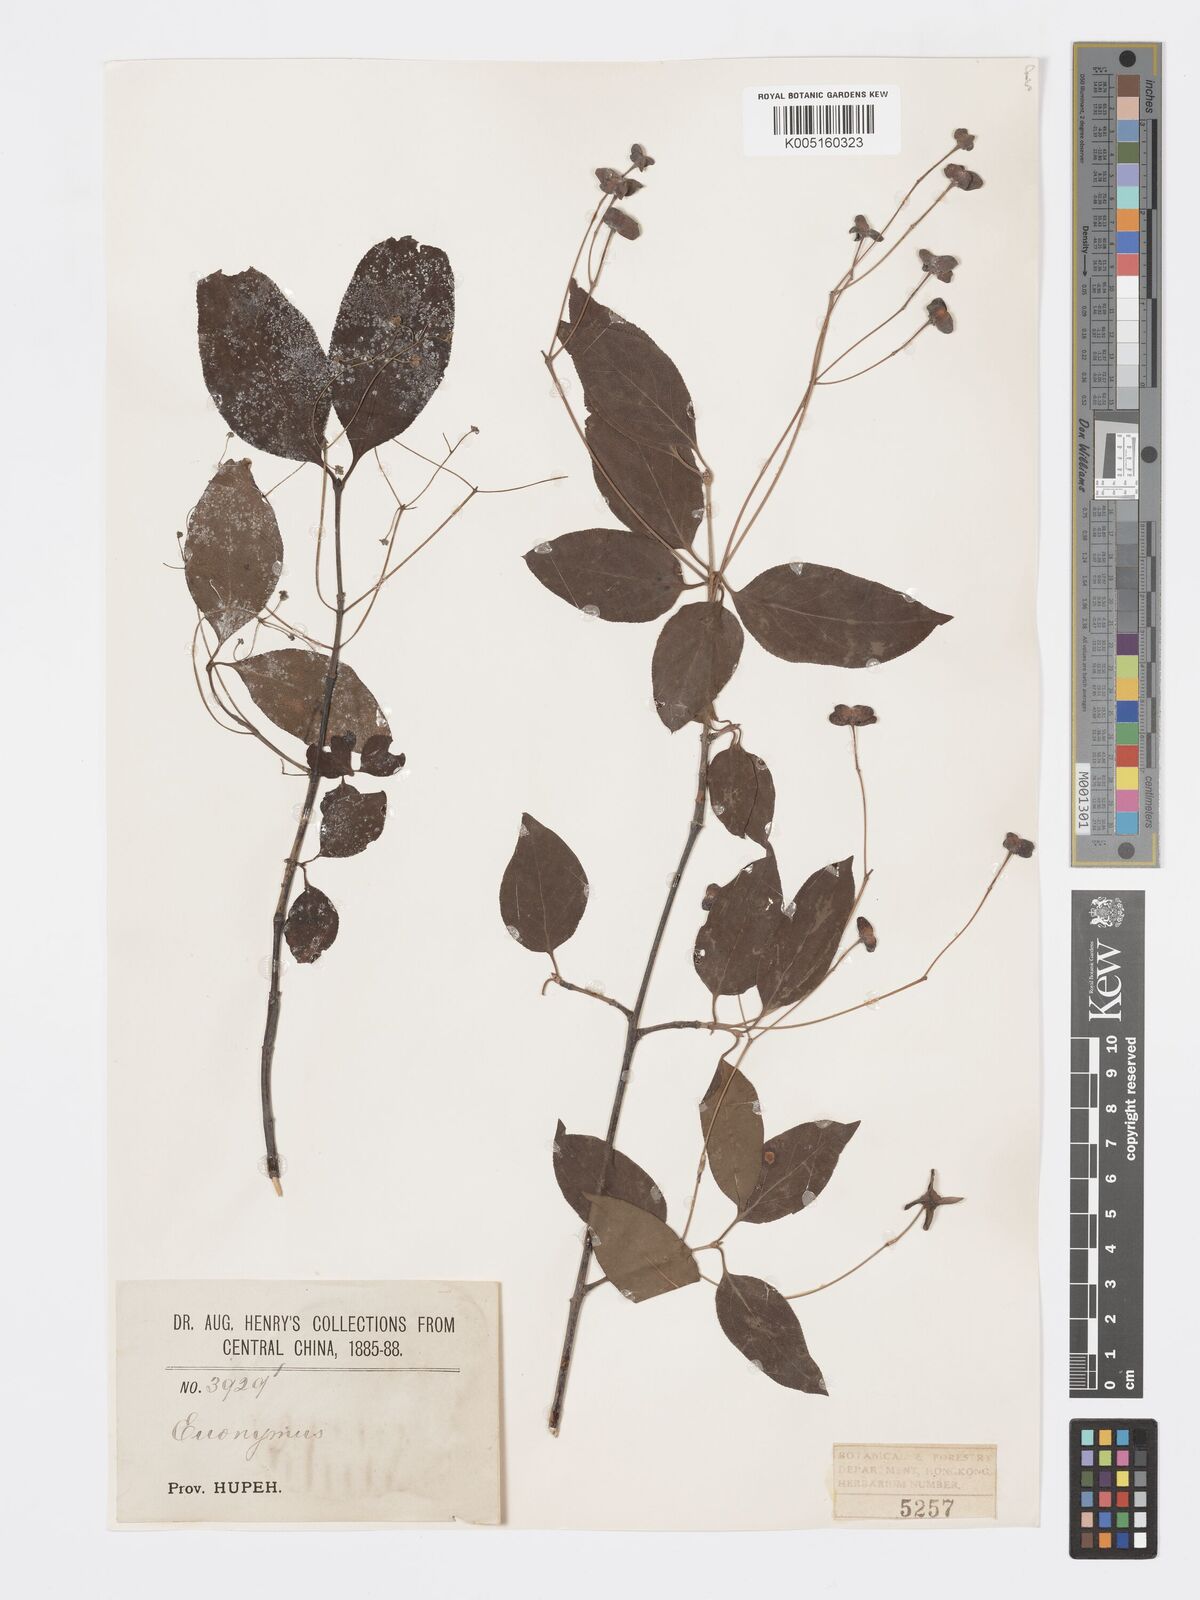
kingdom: Plantae
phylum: Tracheophyta
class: Magnoliopsida
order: Celastrales
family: Celastraceae
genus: Euonymus
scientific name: Euonymus
